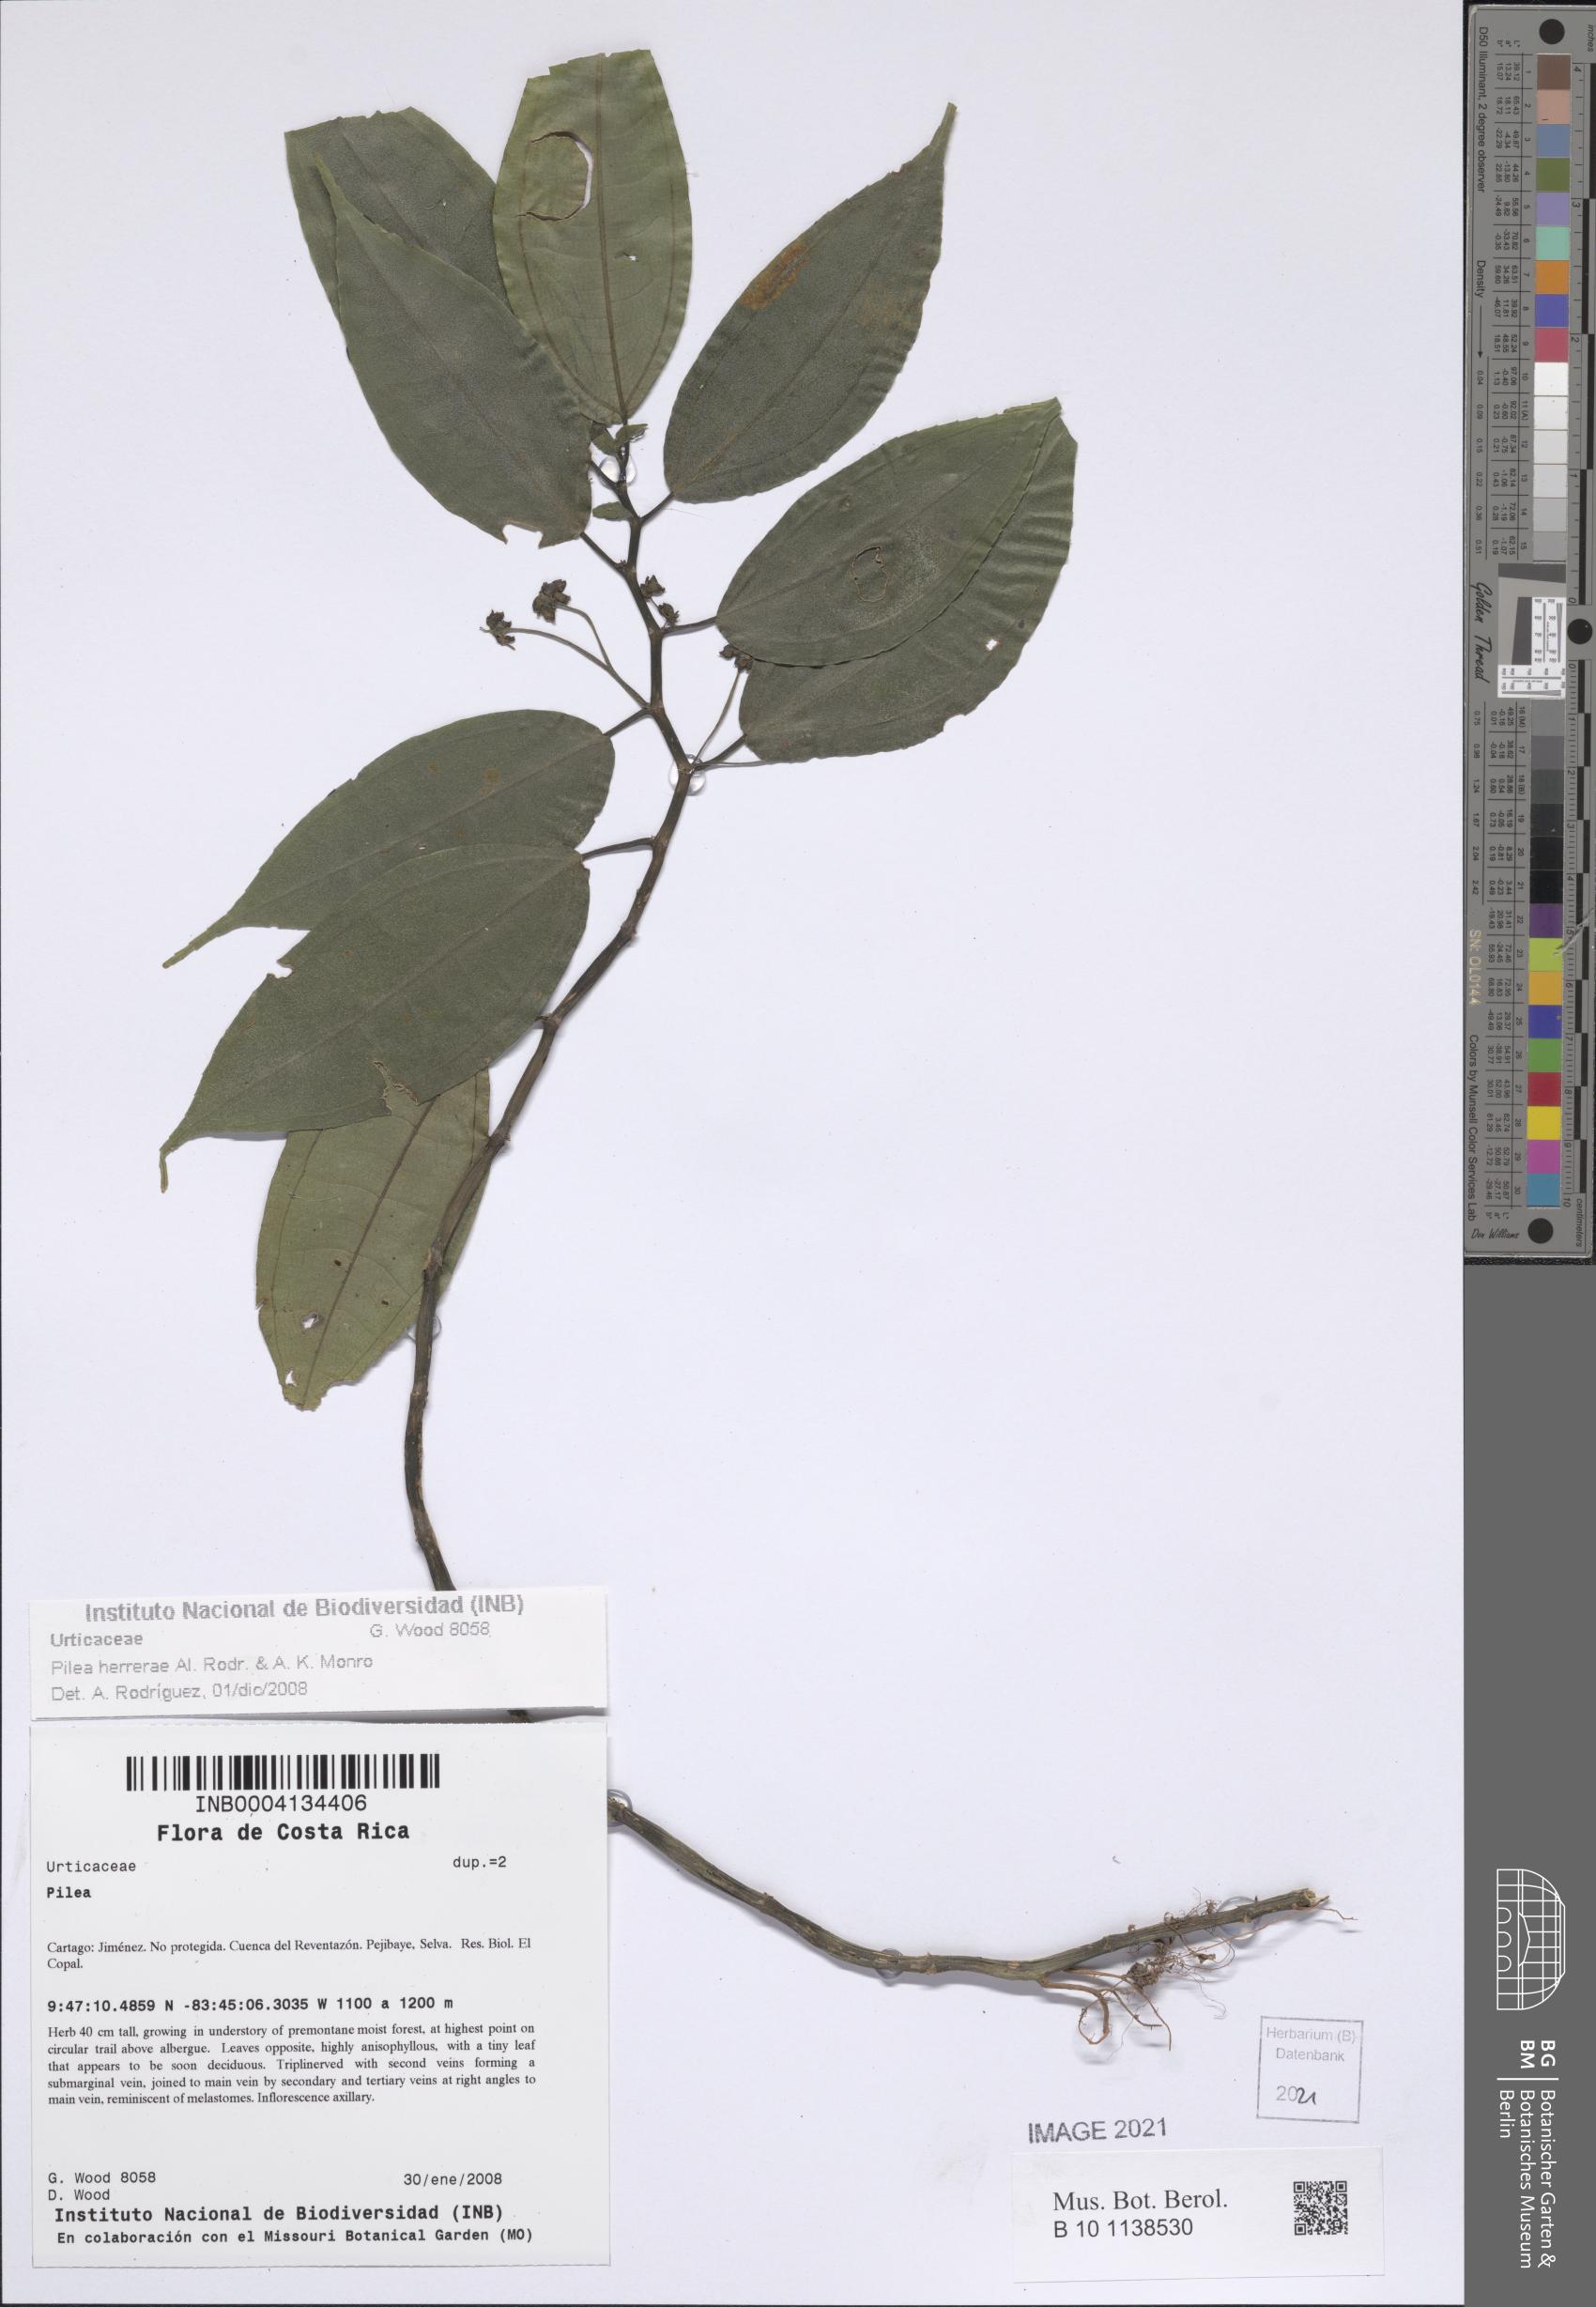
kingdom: Plantae
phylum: Tracheophyta
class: Magnoliopsida
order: Rosales
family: Urticaceae
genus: Pilea
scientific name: Pilea herrerae
